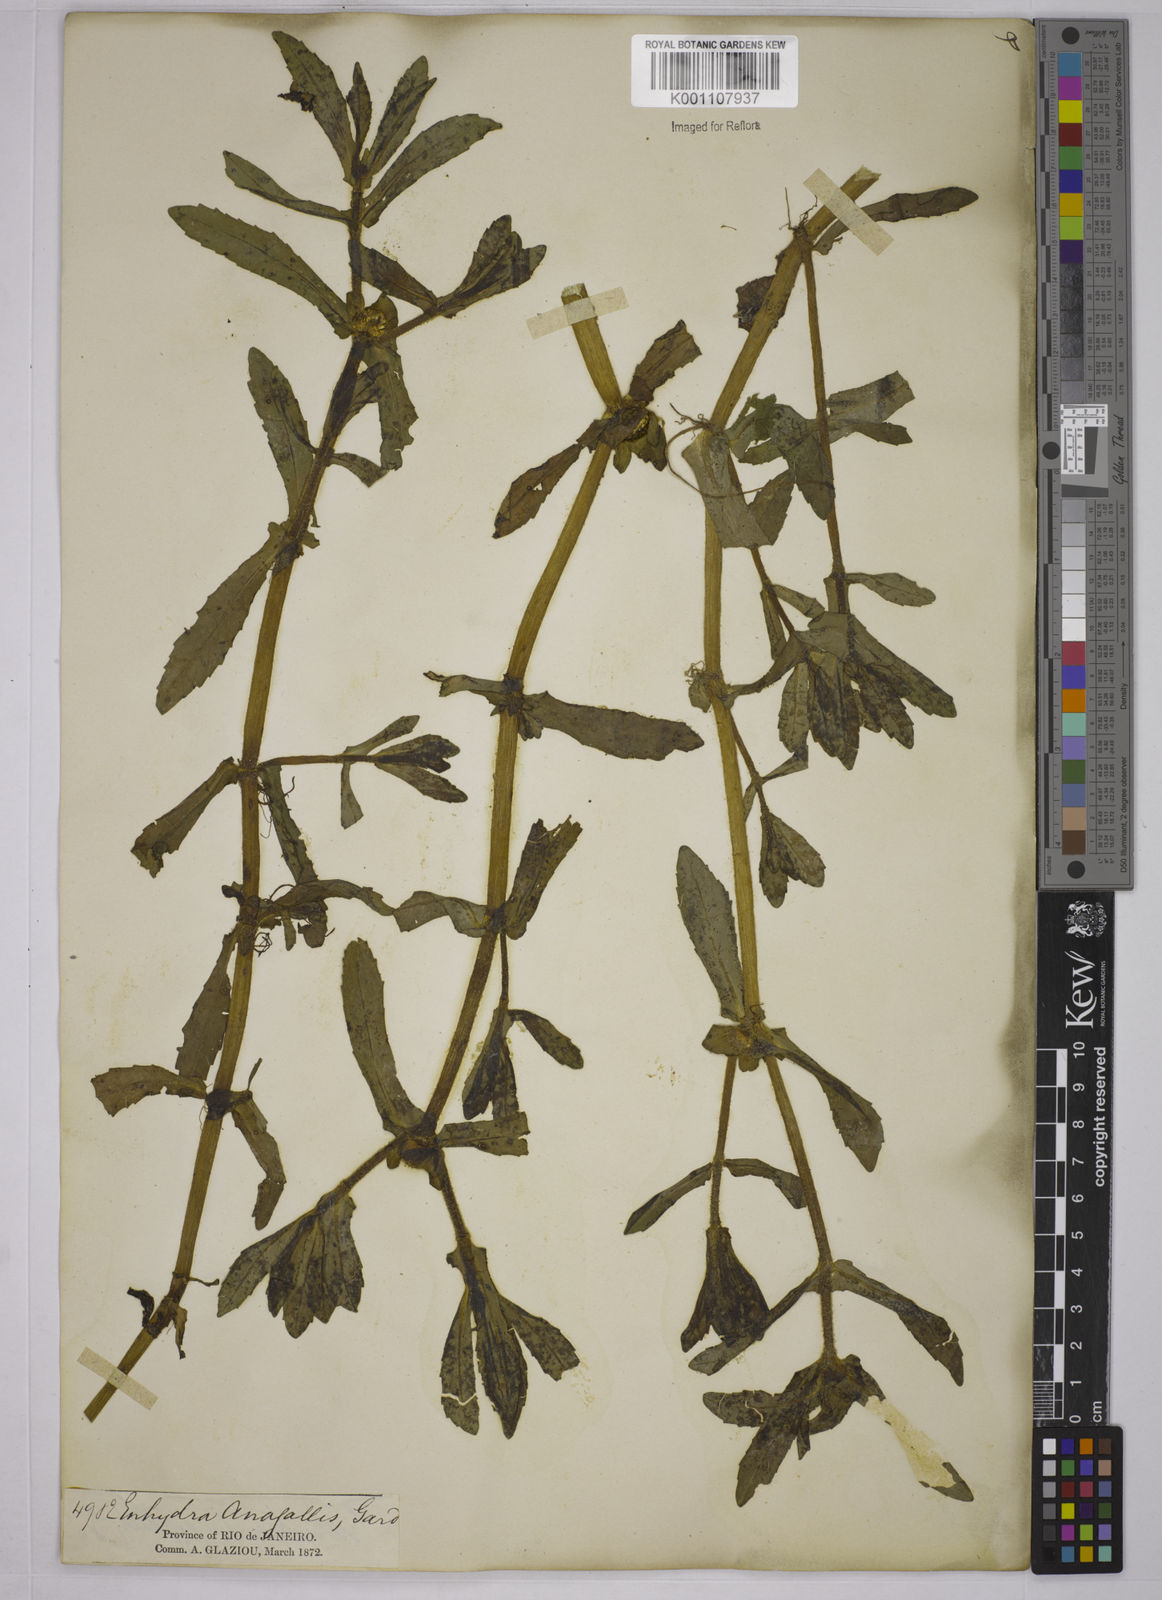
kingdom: Plantae
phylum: Tracheophyta
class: Magnoliopsida
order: Asterales
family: Asteraceae
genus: Enydra
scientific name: Enydra fluctuans
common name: Buffalo spinach
